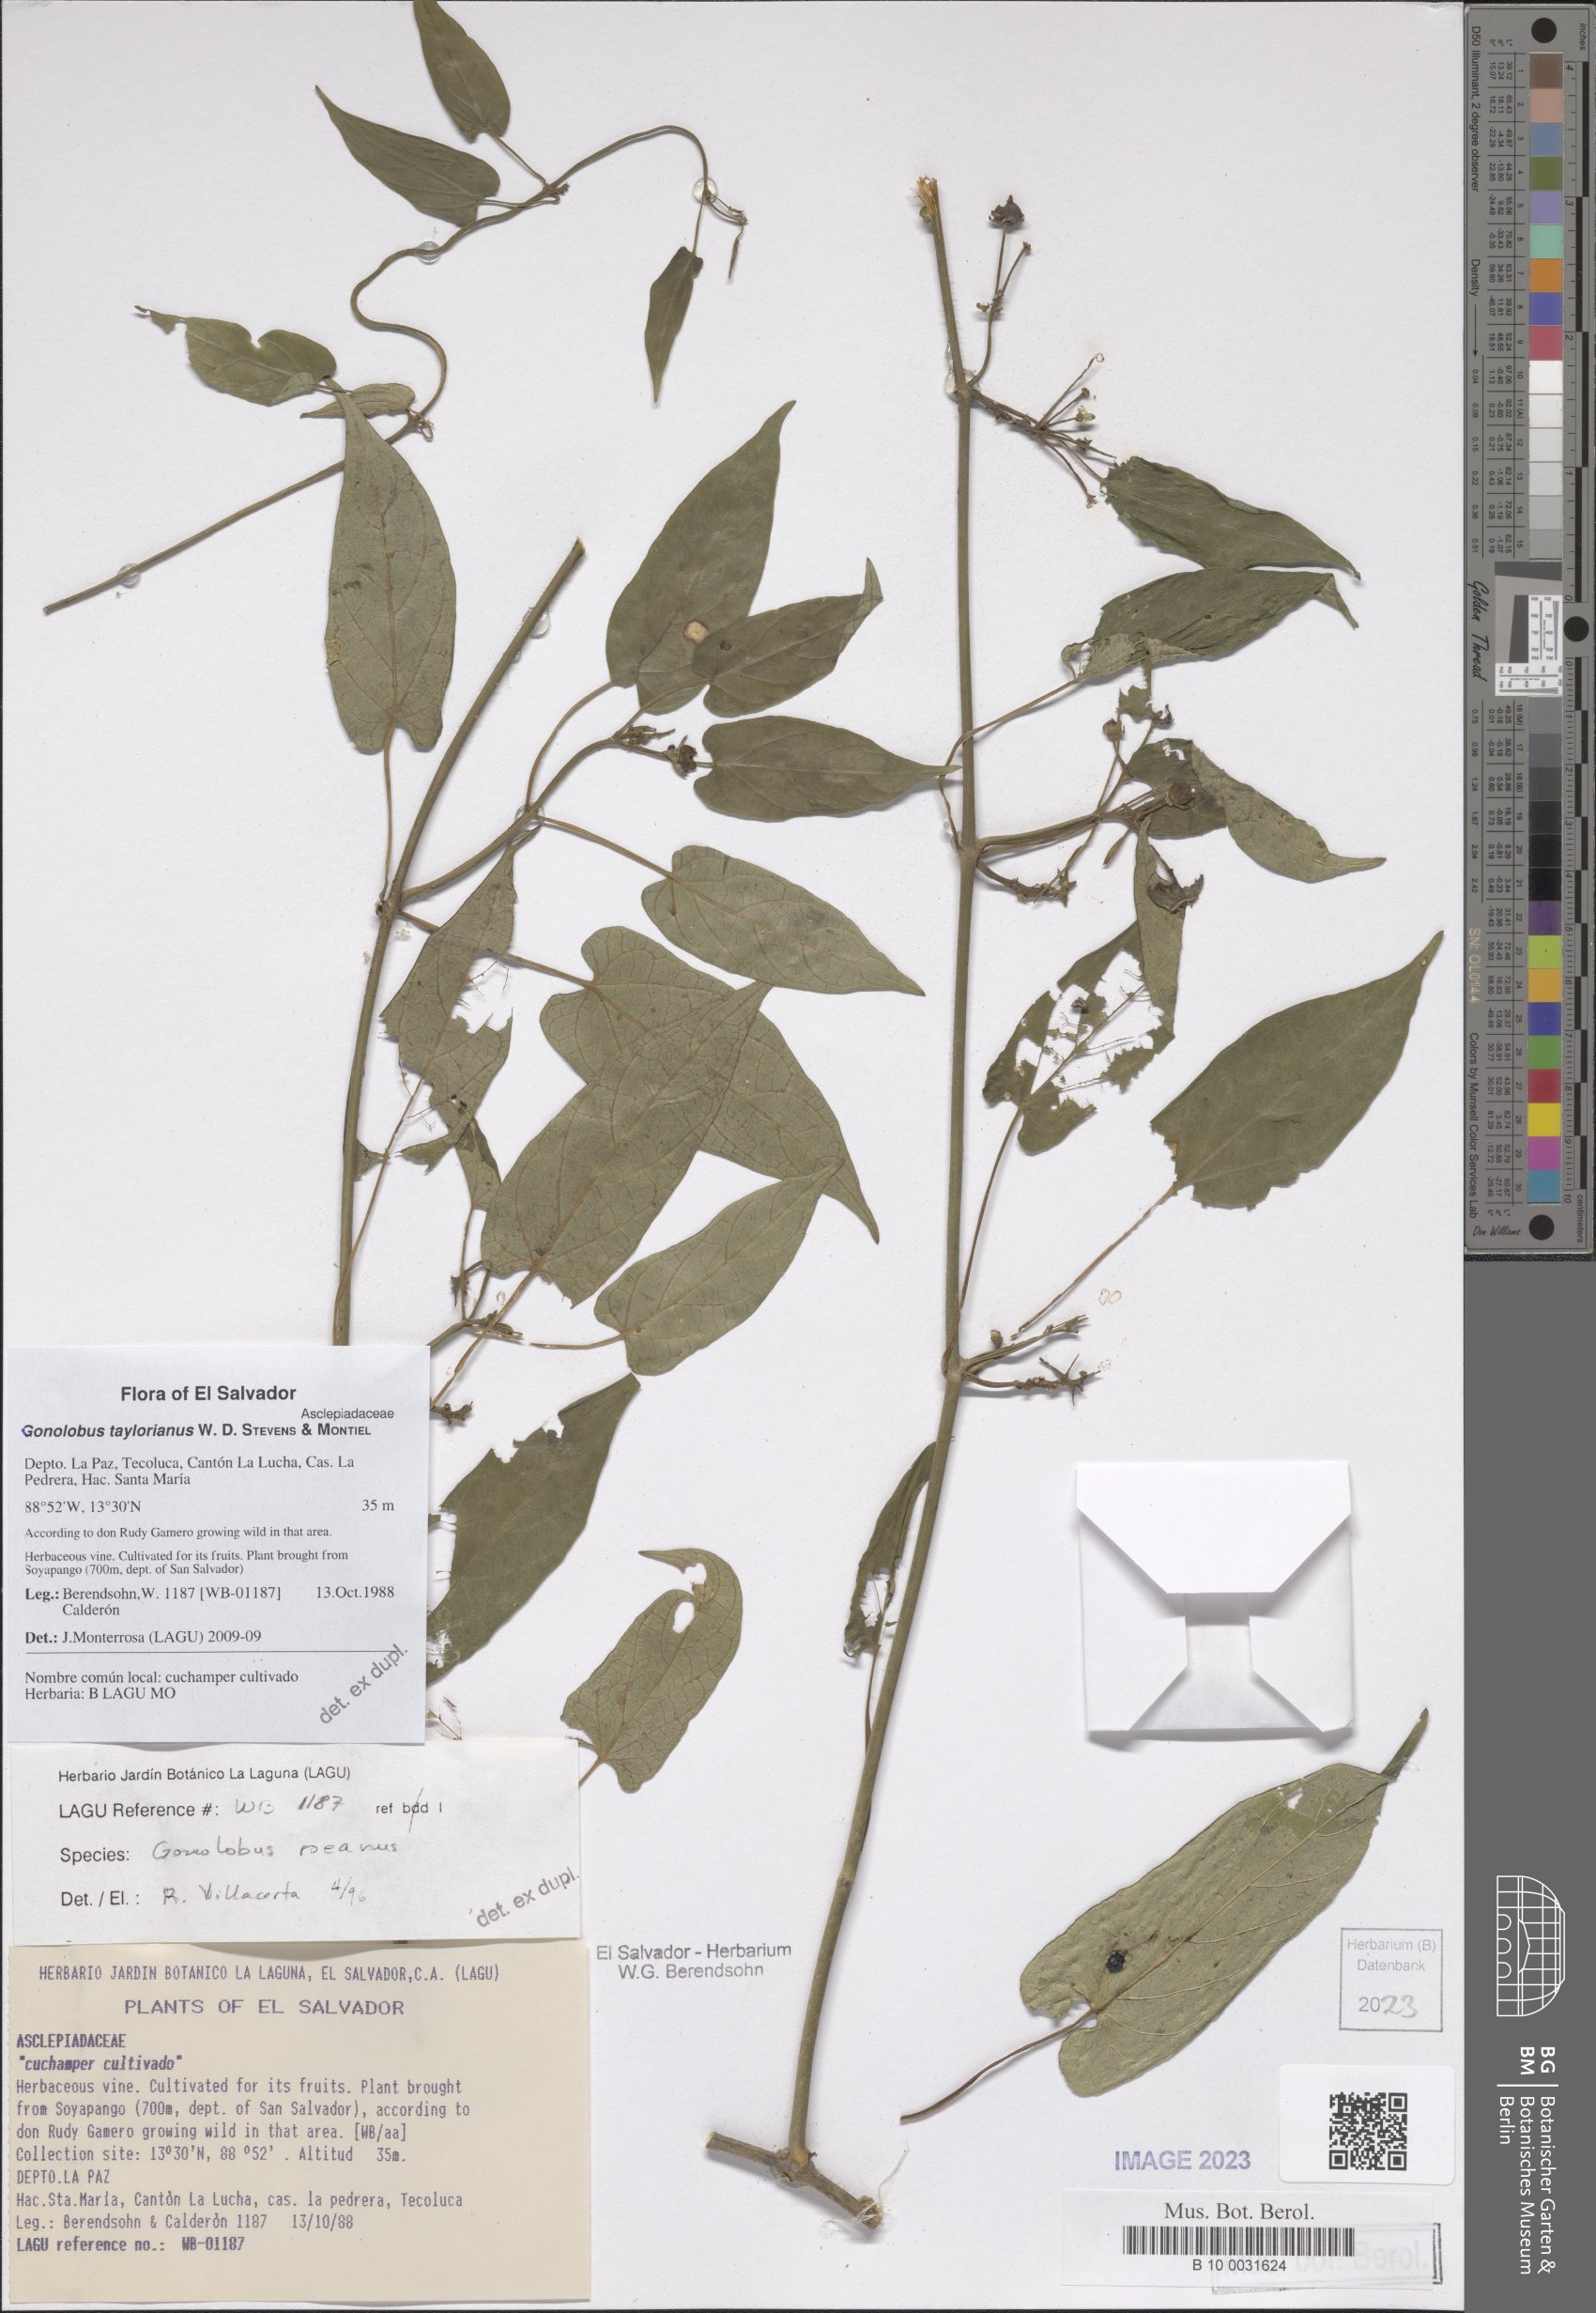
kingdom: Plantae
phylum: Tracheophyta
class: Magnoliopsida
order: Gentianales
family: Apocynaceae
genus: Gonolobus
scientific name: Gonolobus taylorianus
